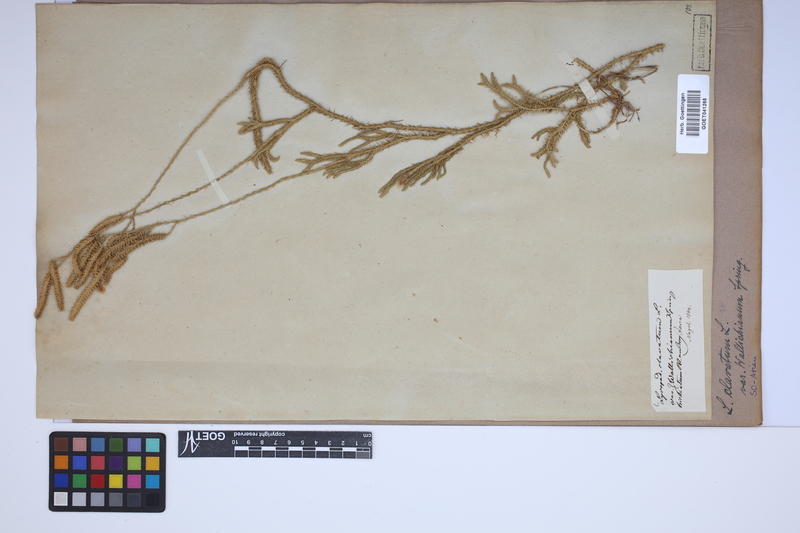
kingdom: Plantae
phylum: Tracheophyta
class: Lycopodiopsida
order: Lycopodiales
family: Lycopodiaceae
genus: Lycopodium
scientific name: Lycopodium clavatum
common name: Stag's-horn clubmoss
